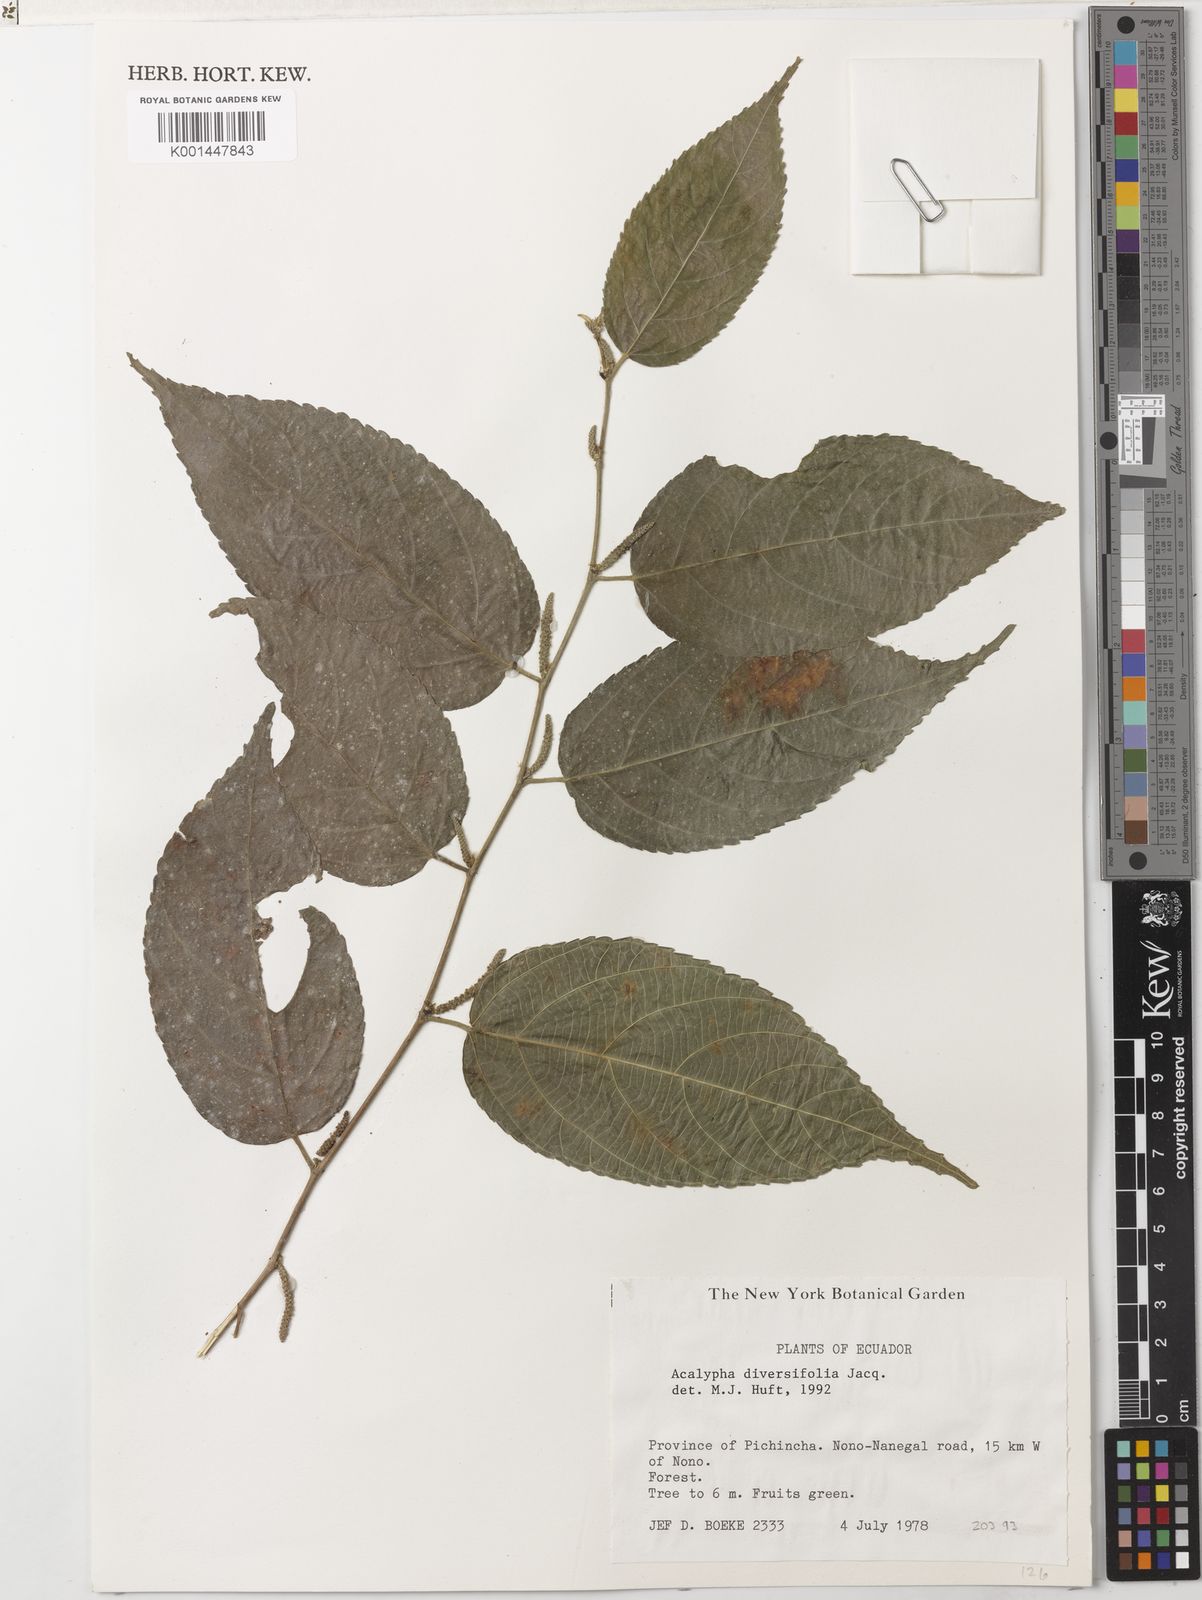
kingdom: Plantae
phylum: Tracheophyta
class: Magnoliopsida
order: Malpighiales
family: Euphorbiaceae
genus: Acalypha
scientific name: Acalypha diversifolia
